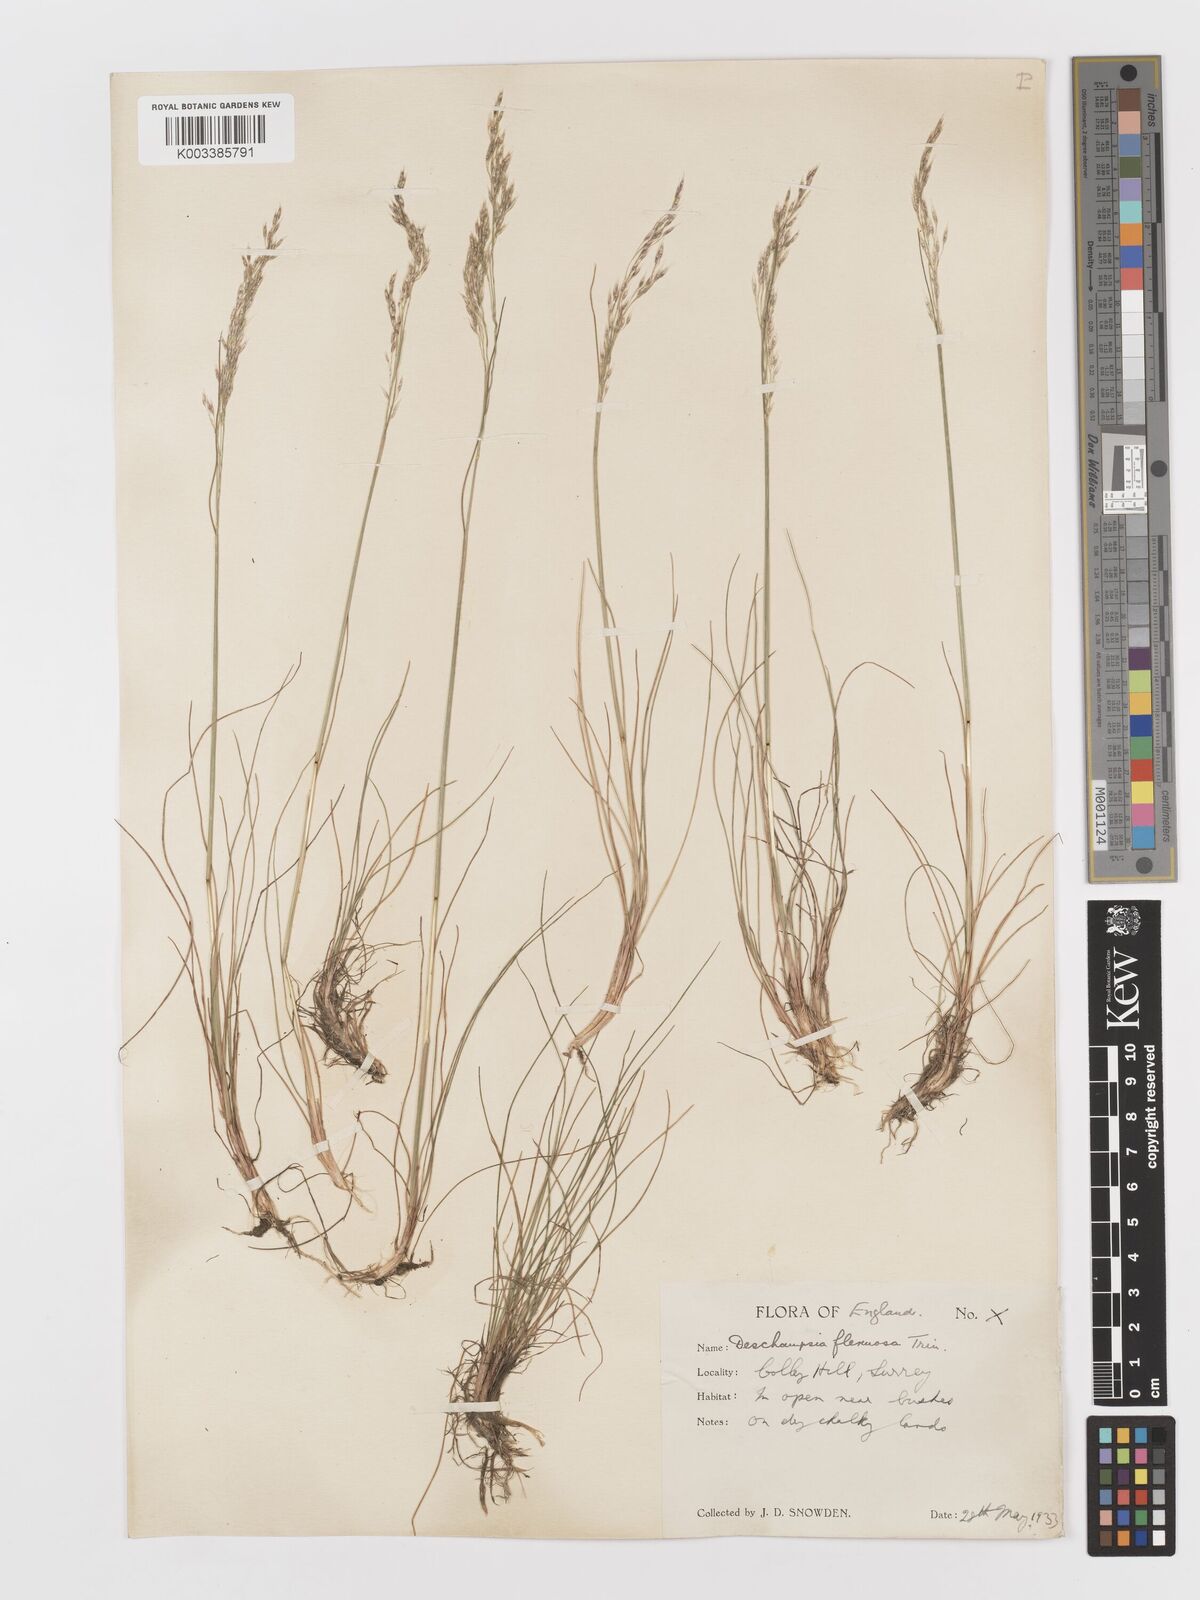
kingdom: Plantae
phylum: Tracheophyta
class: Liliopsida
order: Poales
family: Poaceae
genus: Avenella
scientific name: Avenella flexuosa
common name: Wavy hairgrass
